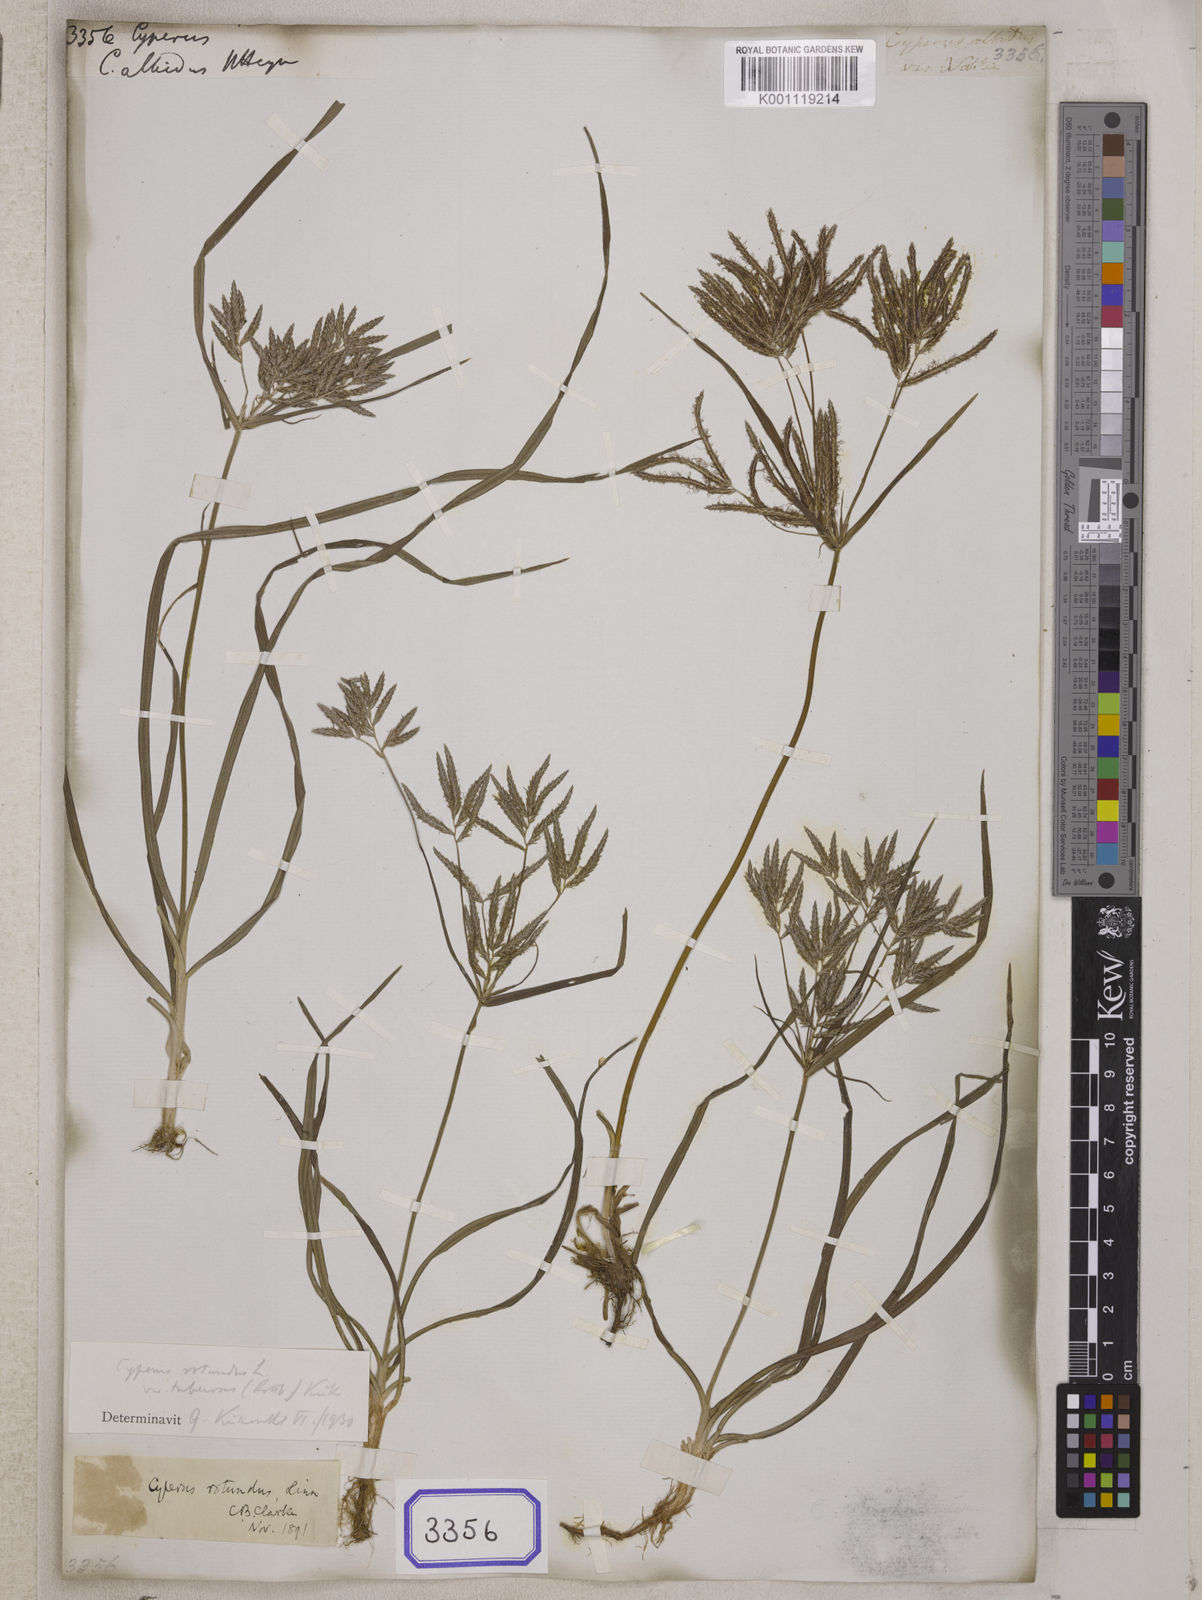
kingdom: Plantae
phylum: Tracheophyta
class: Liliopsida
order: Poales
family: Cyperaceae
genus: Cyperus
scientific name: Cyperus
